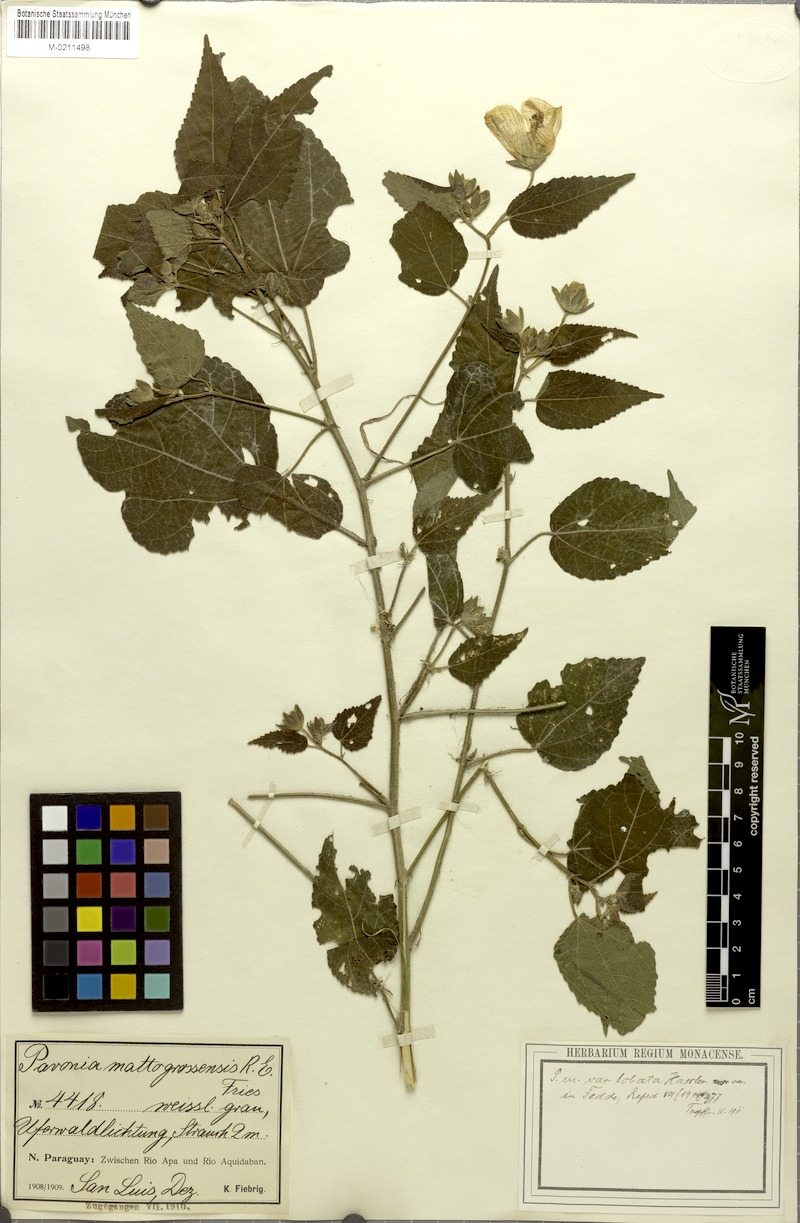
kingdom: Plantae
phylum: Tracheophyta
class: Magnoliopsida
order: Malvales
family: Malvaceae
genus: Pavonia
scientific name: Pavonia mattogrossensis
